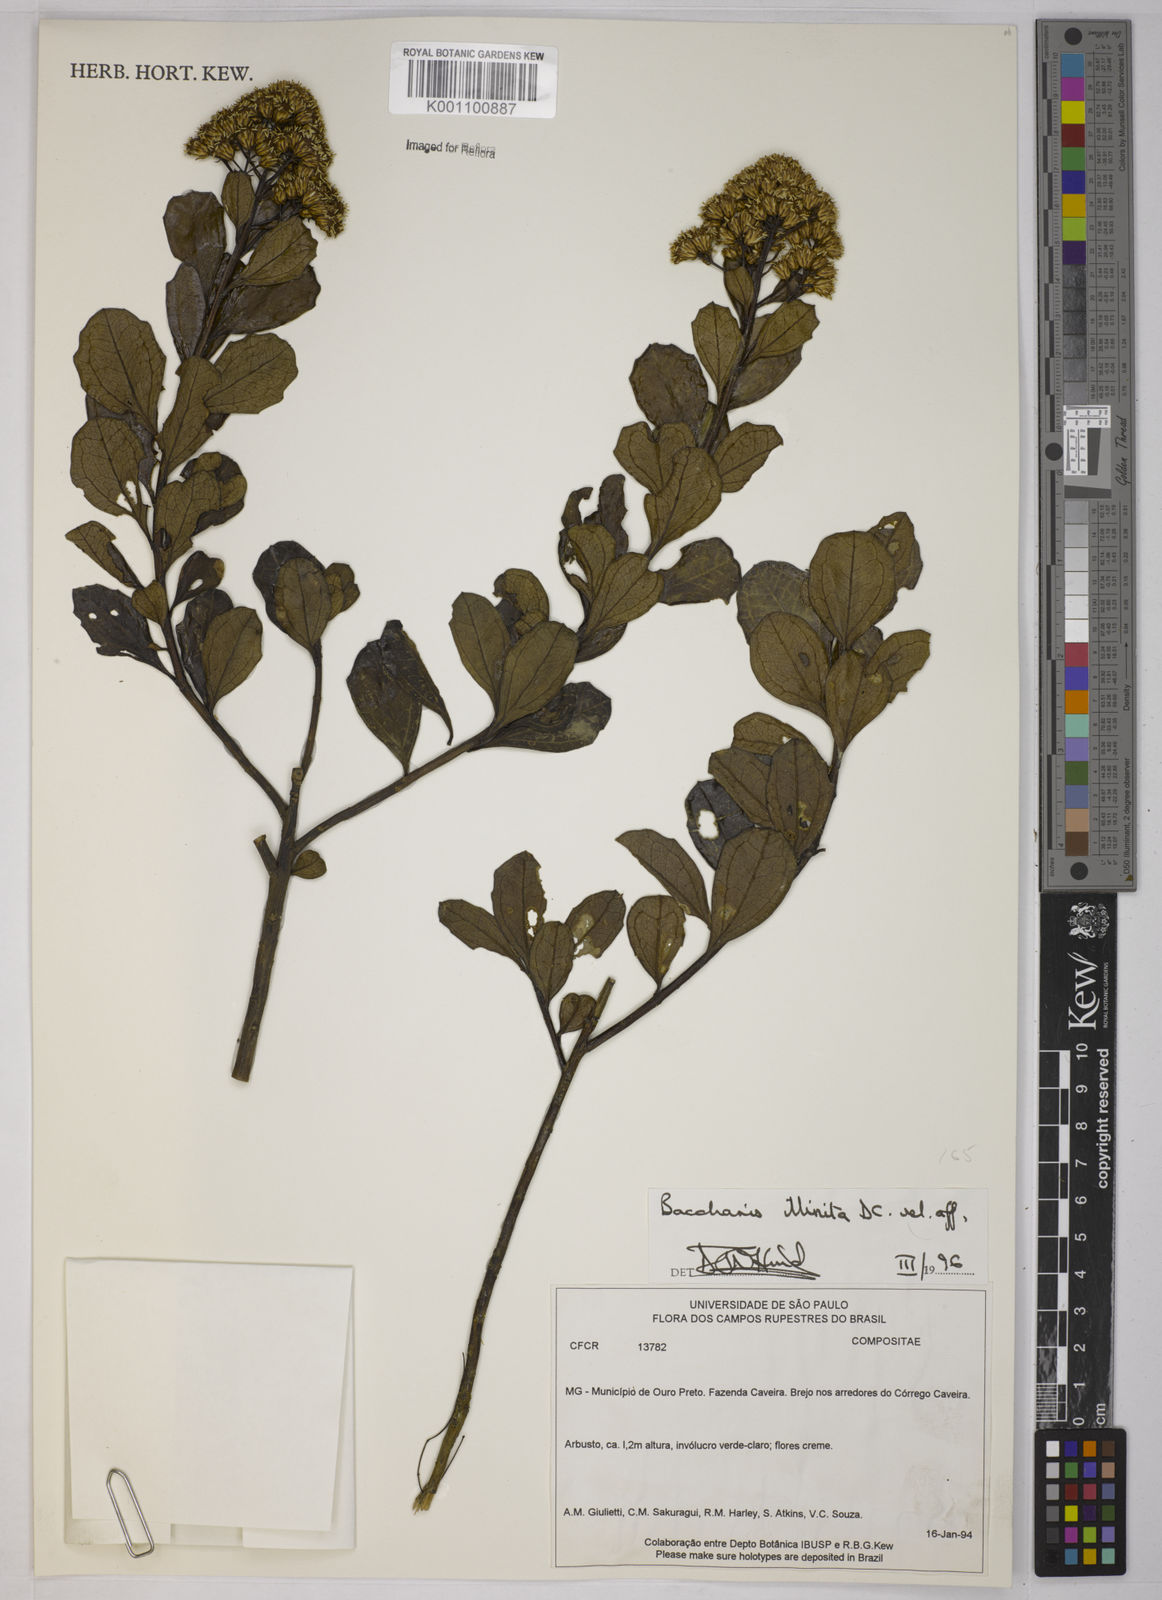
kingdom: Plantae
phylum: Tracheophyta
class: Magnoliopsida
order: Asterales
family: Asteraceae
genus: Baccharis
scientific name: Baccharis tridentata
